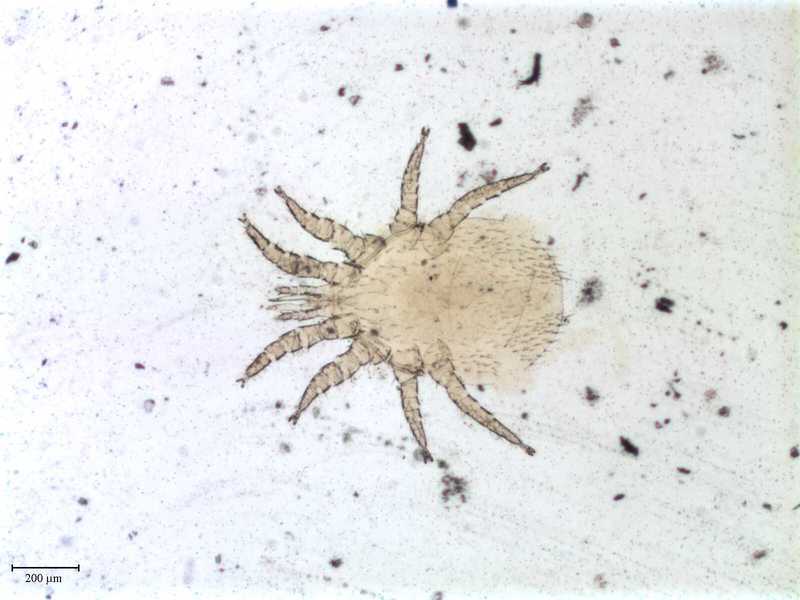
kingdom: Animalia
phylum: Arthropoda
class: Arachnida
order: Mesostigmata
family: Macronyssidae
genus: Macronyssus
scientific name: Macronyssus diversipilis
